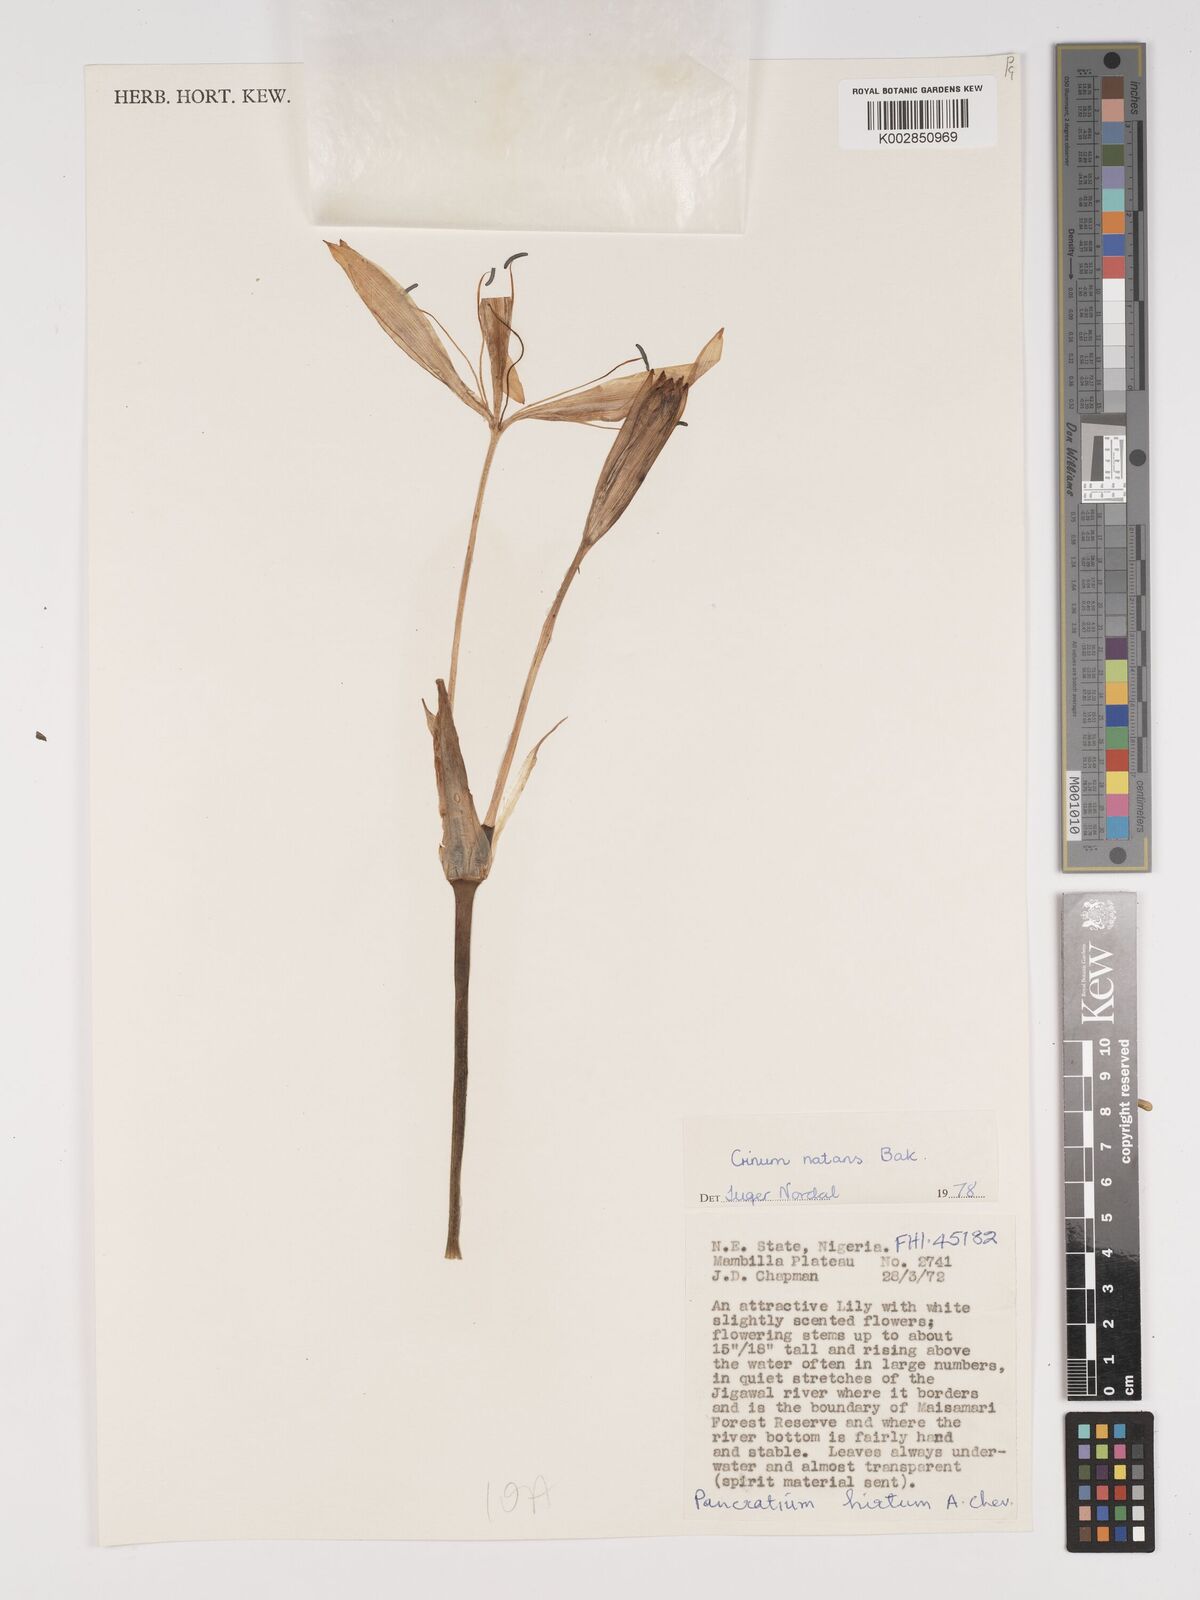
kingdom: Plantae
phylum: Tracheophyta
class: Liliopsida
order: Asparagales
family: Amaryllidaceae
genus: Crinum
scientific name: Crinum natans
